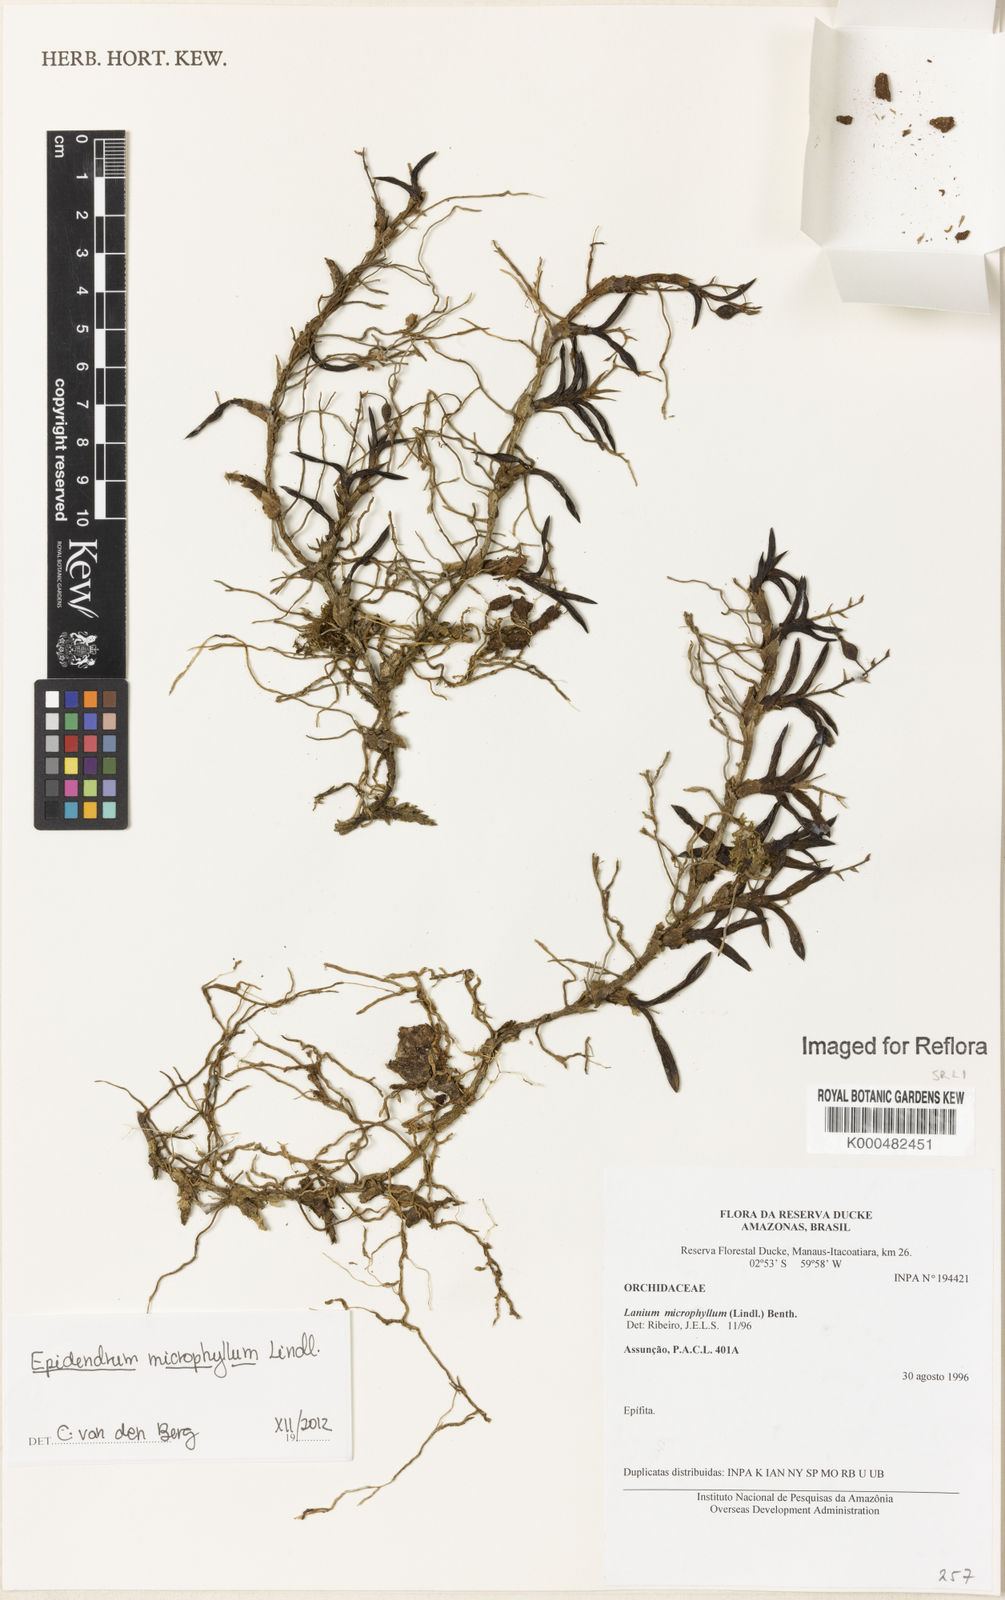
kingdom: Plantae
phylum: Tracheophyta
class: Liliopsida
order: Asparagales
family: Orchidaceae
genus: Epidendrum
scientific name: Epidendrum microphyllum
